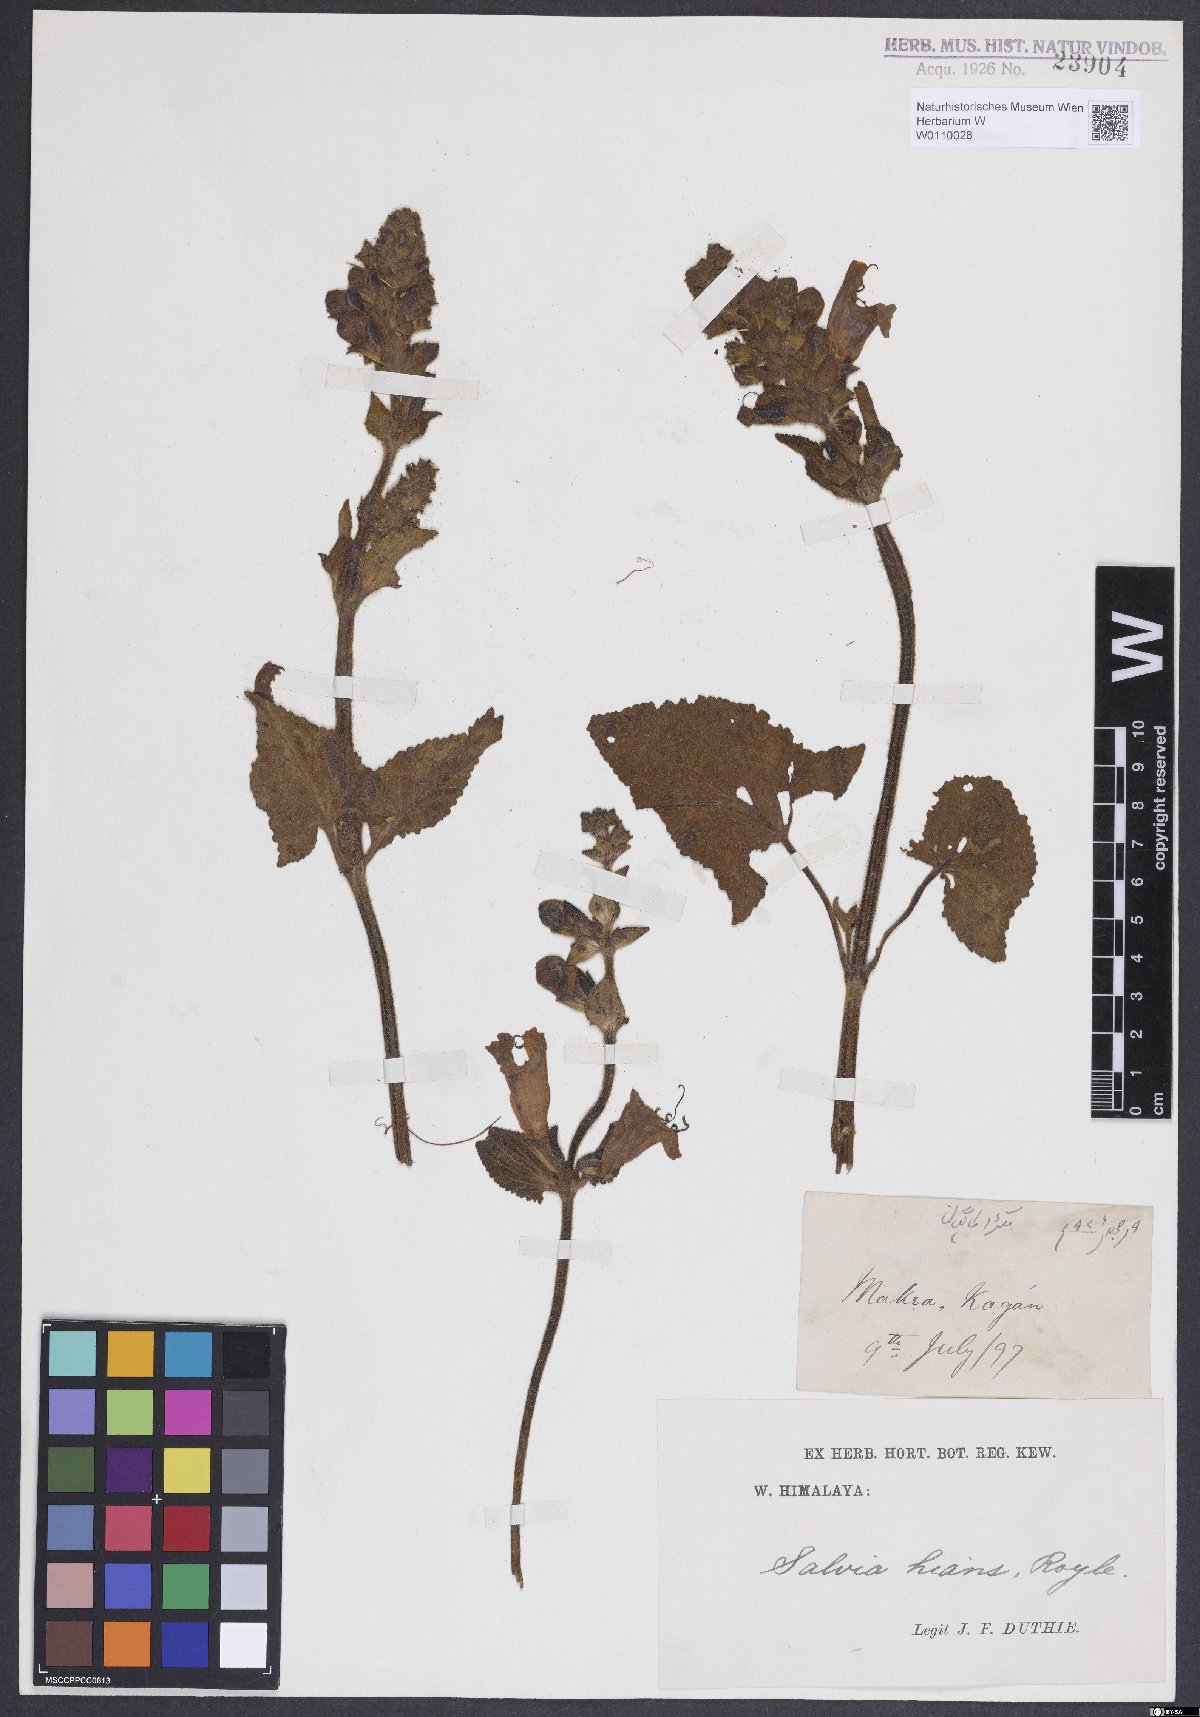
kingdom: Plantae
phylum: Tracheophyta
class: Magnoliopsida
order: Lamiales
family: Lamiaceae
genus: Salvia
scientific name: Salvia hians
